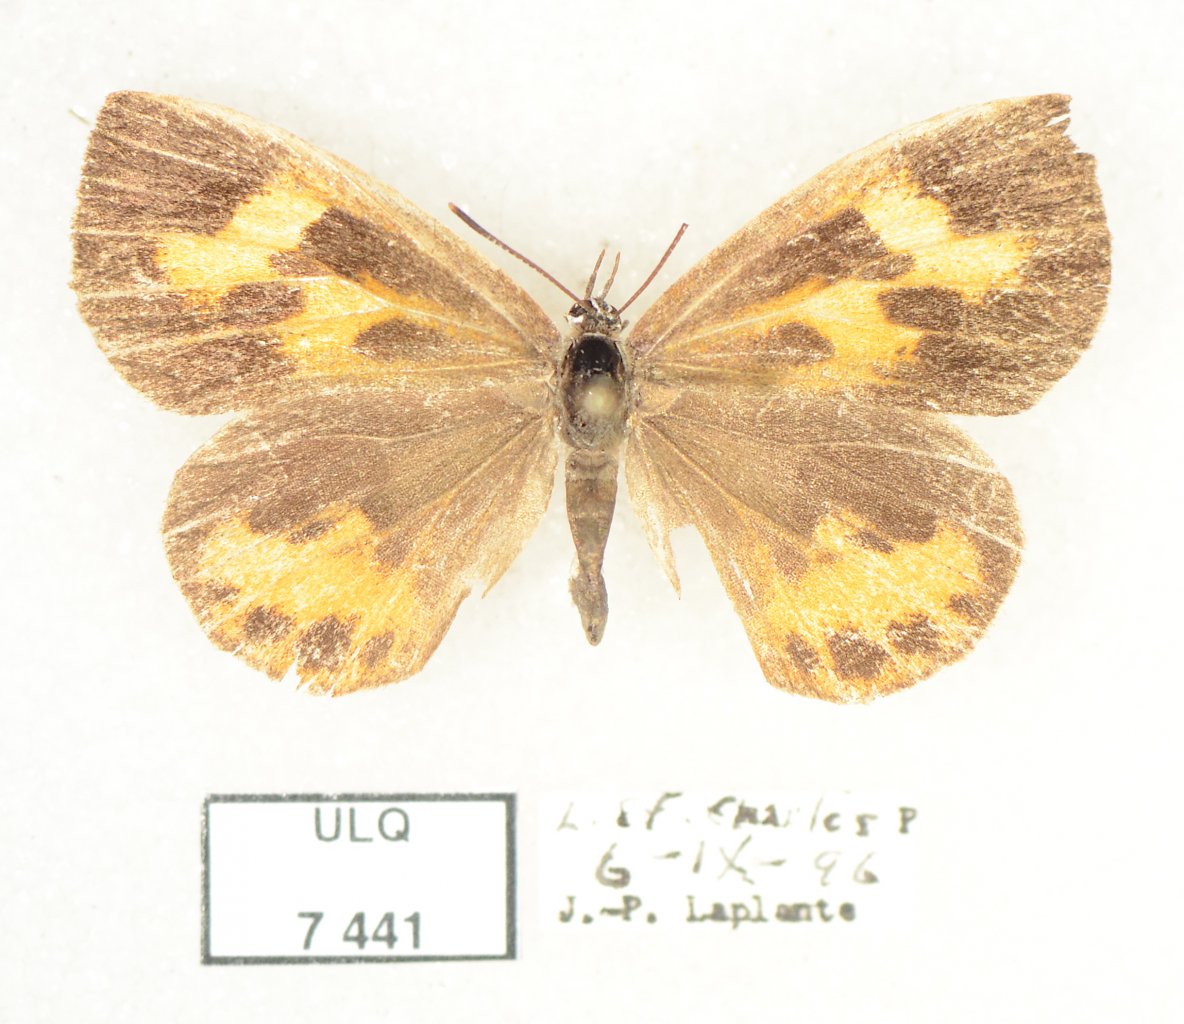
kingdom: Animalia
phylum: Arthropoda
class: Insecta
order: Lepidoptera
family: Lycaenidae
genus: Feniseca
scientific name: Feniseca tarquinius
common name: Harvester
